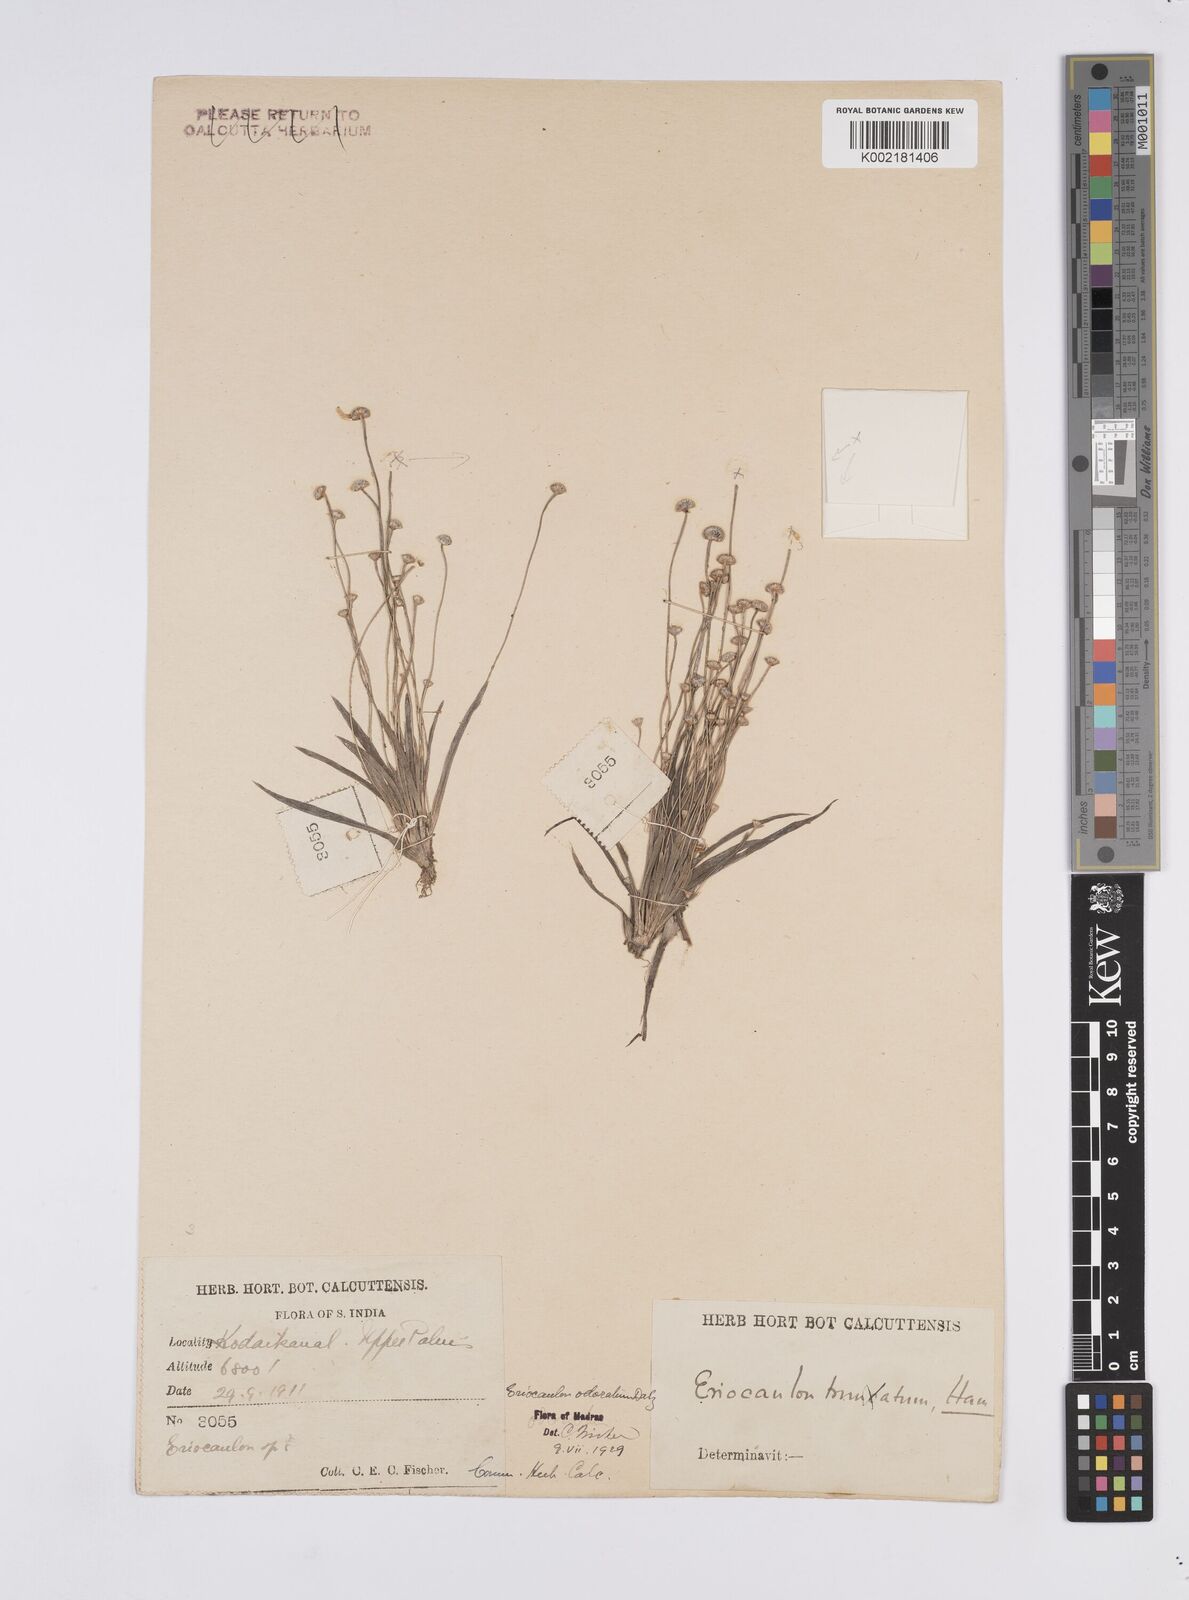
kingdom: Plantae
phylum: Tracheophyta
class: Liliopsida
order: Poales
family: Eriocaulaceae
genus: Eriocaulon
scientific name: Eriocaulon odoratum
